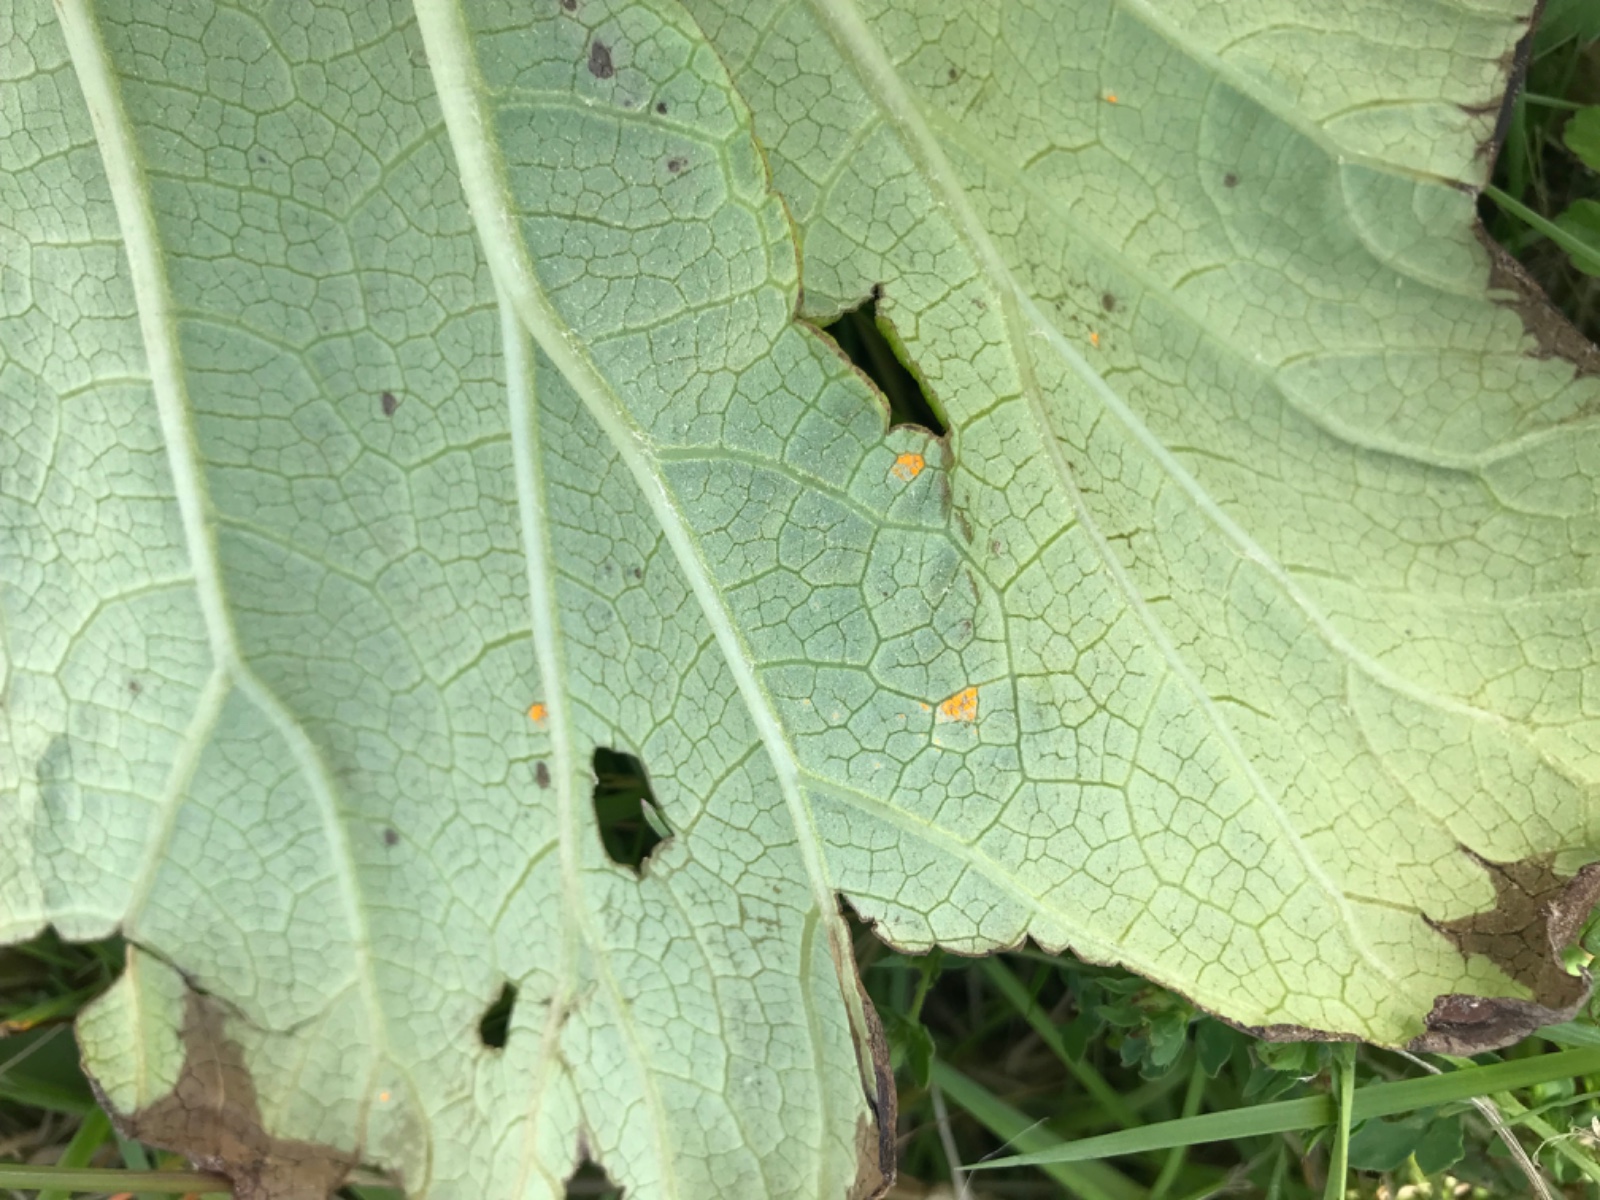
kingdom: Fungi
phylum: Basidiomycota
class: Pucciniomycetes
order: Pucciniales
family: Coleosporiaceae
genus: Coleosporium
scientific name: Coleosporium tussilaginis
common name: almindelig fyrrenålerust
